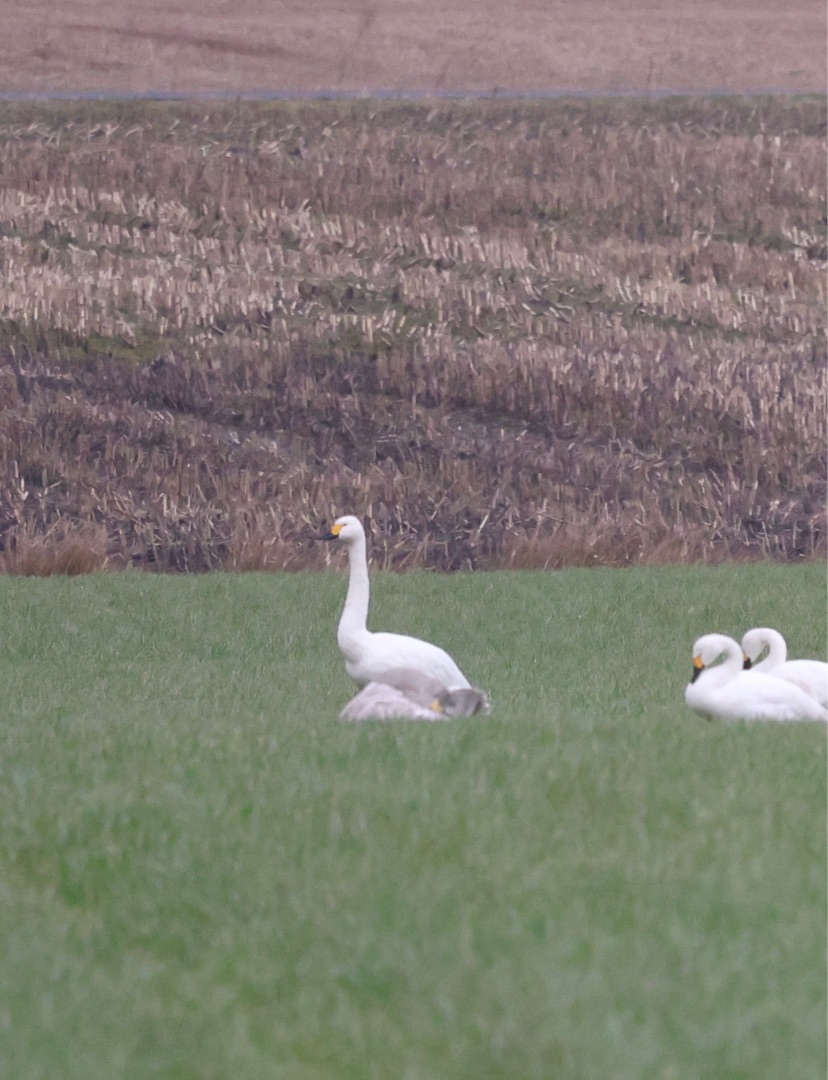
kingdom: Animalia
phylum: Chordata
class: Aves
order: Anseriformes
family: Anatidae
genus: Cygnus
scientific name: Cygnus columbianus
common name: Pibesvane
